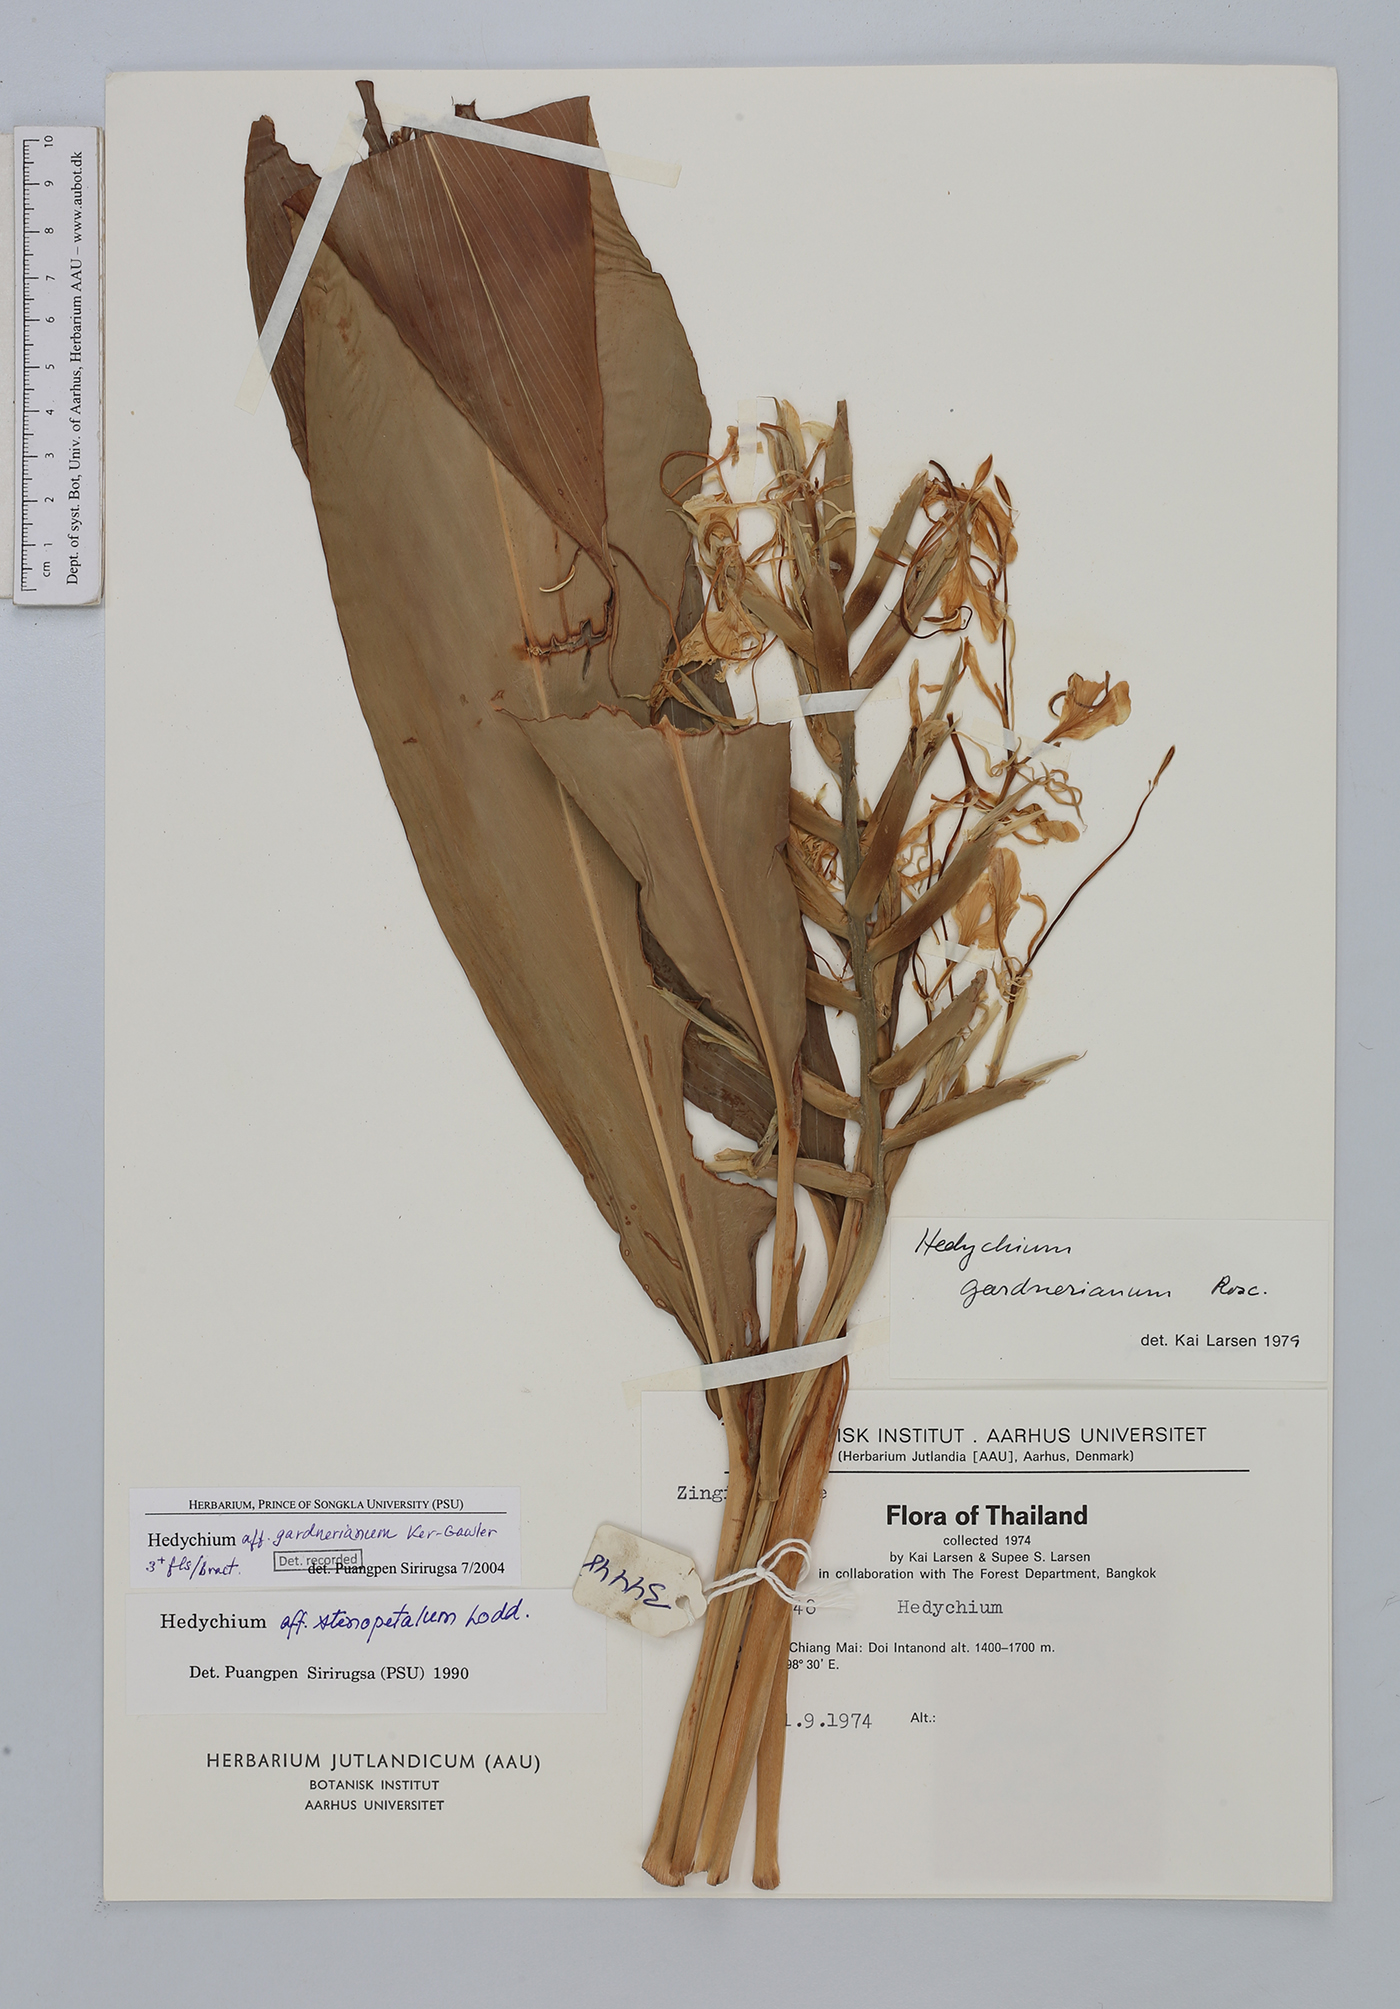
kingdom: Plantae
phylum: Tracheophyta
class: Liliopsida
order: Zingiberales
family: Zingiberaceae
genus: Hedychium
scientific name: Hedychium gardnerianum
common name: Himalayan ginger
